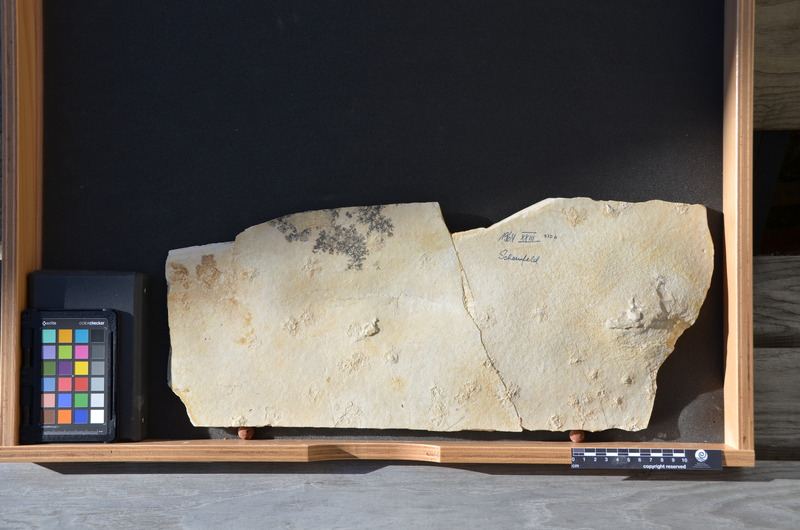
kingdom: Animalia
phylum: Chordata
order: Amiiformes
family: Caturidae
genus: Caturus
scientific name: Caturus furcatus
